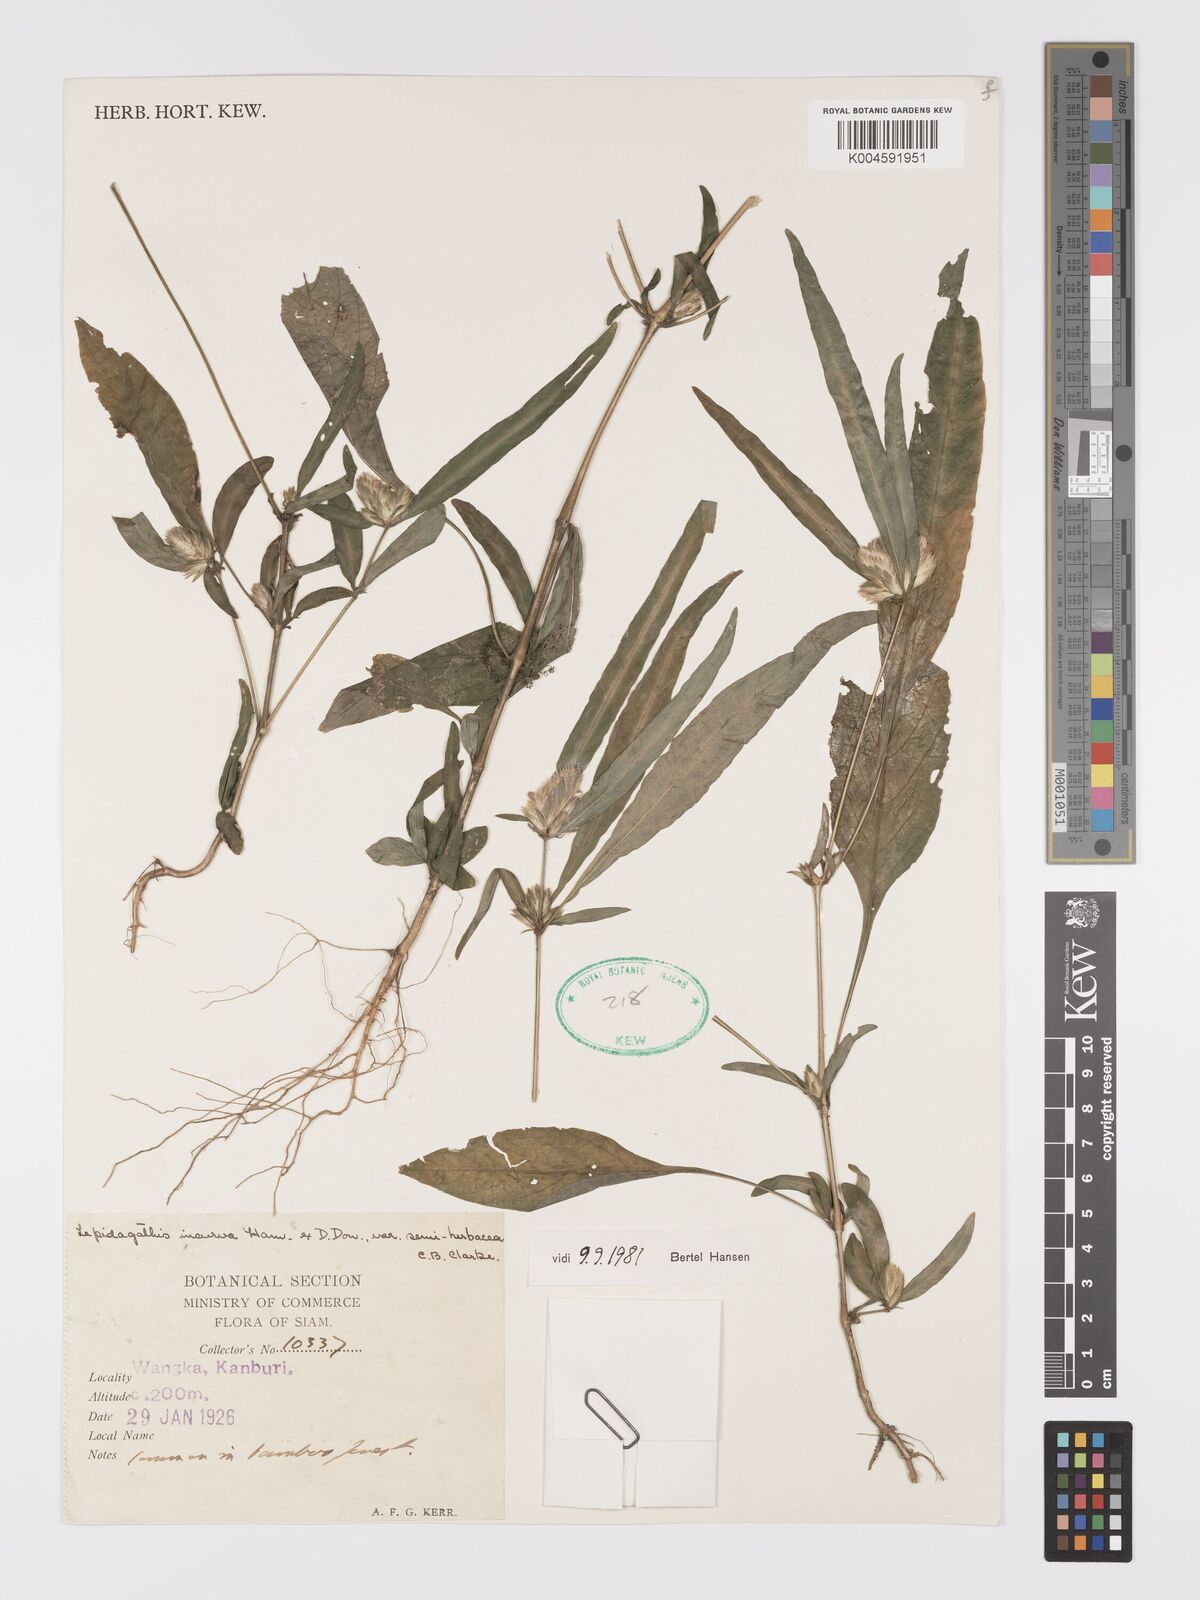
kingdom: Plantae
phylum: Tracheophyta
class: Magnoliopsida
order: Lamiales
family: Acanthaceae
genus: Lepidagathis
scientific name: Lepidagathis incurva
